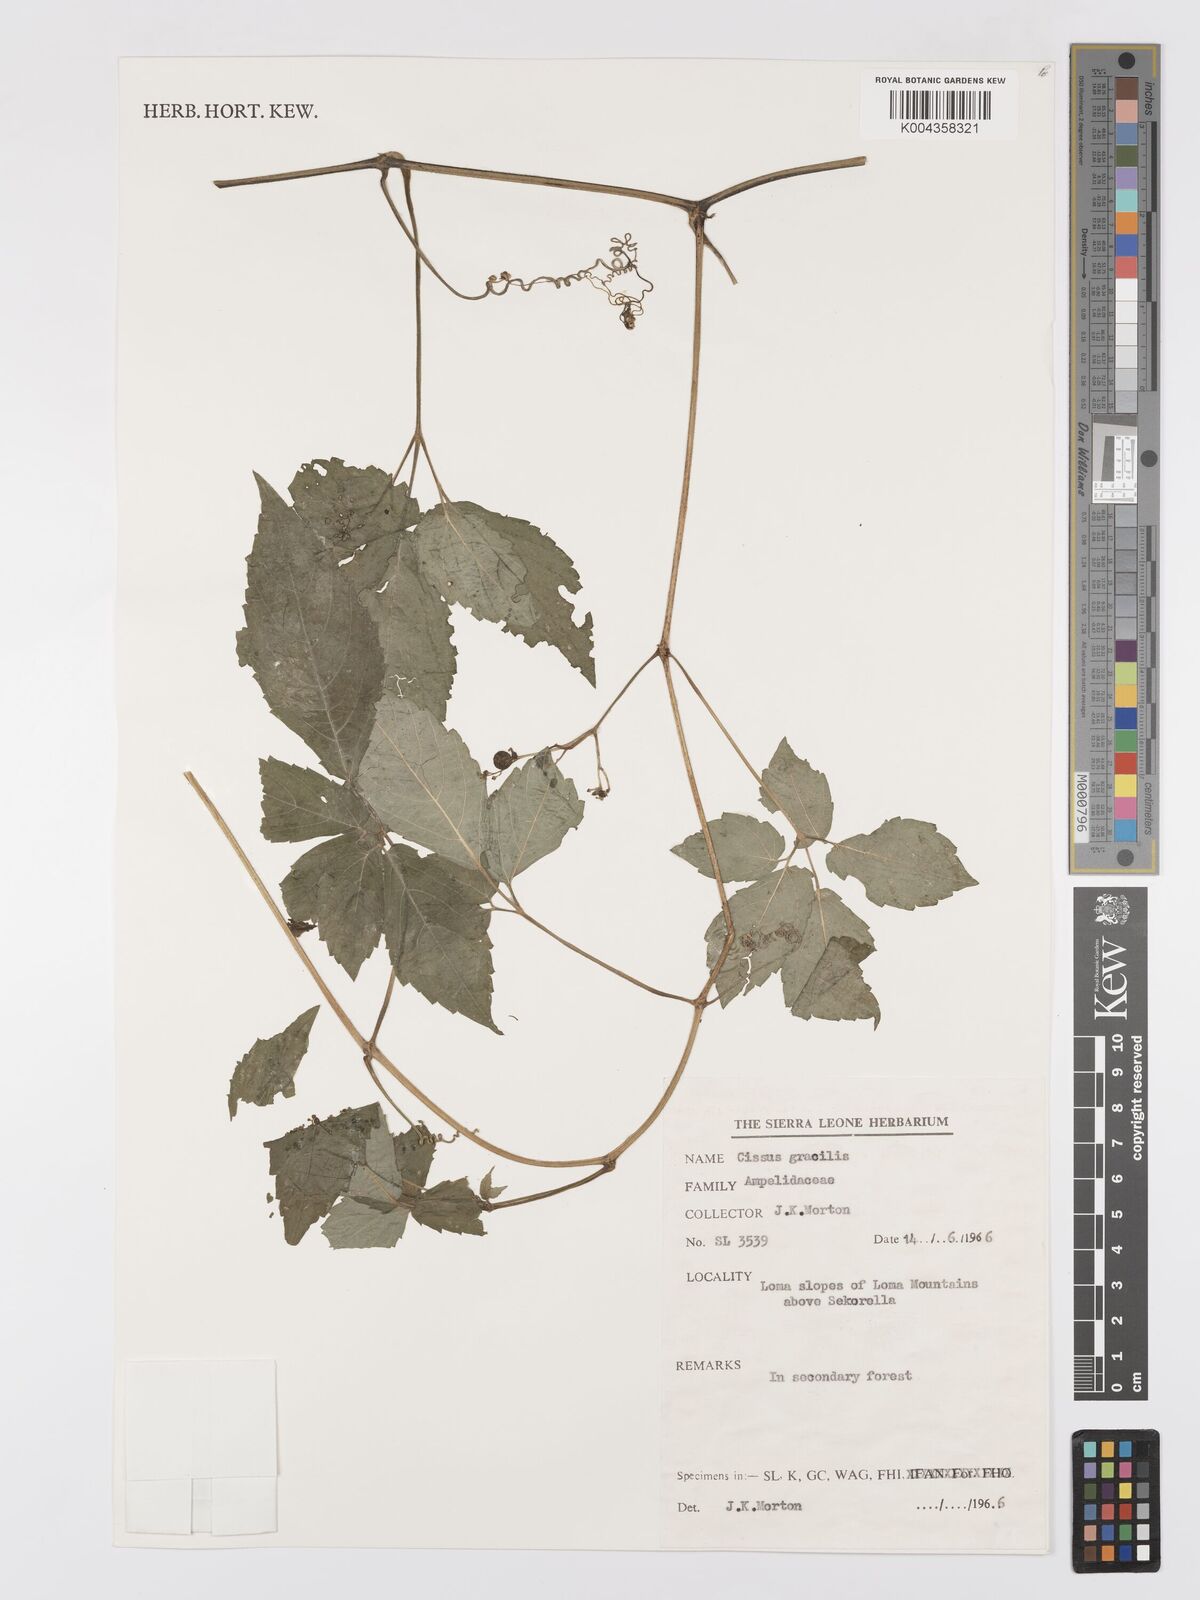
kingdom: Plantae
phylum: Tracheophyta
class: Magnoliopsida
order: Vitales
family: Vitaceae
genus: Afrocayratia
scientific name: Afrocayratia gracilis
